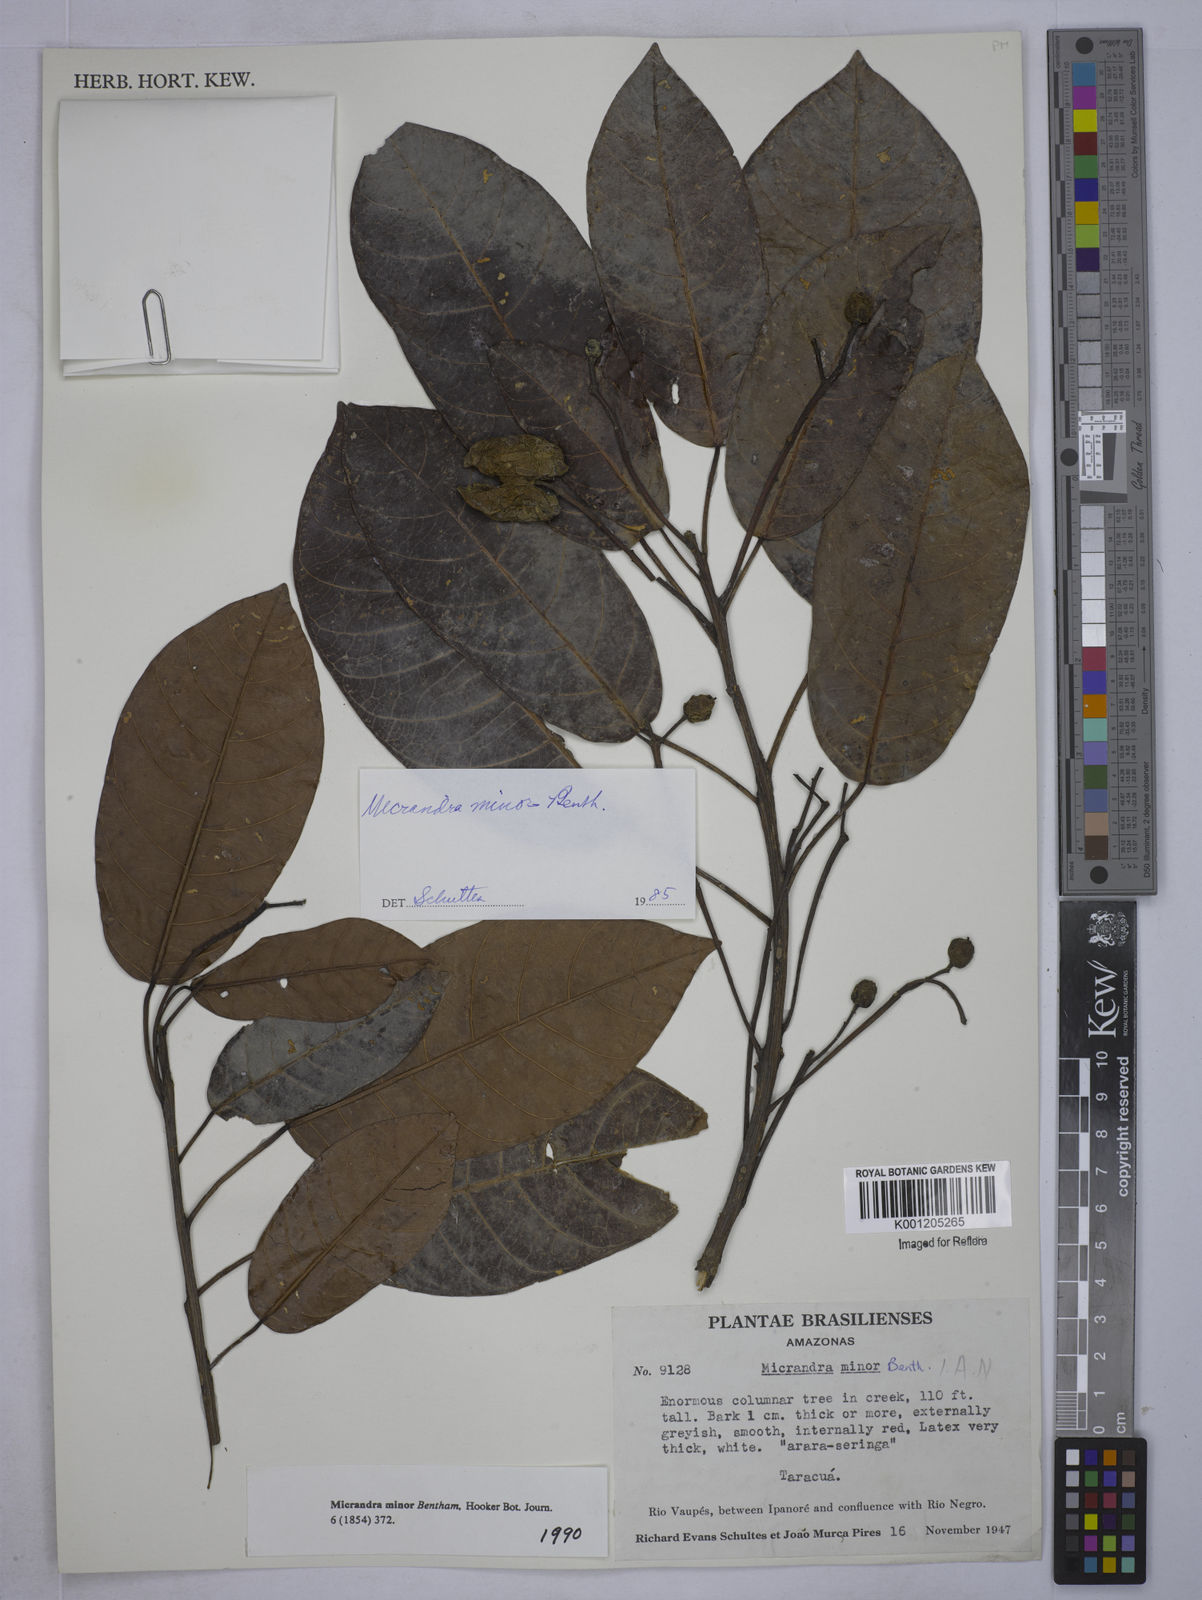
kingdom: Plantae
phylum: Tracheophyta
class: Magnoliopsida
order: Malpighiales
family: Euphorbiaceae
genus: Micrandra
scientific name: Micrandra minor
